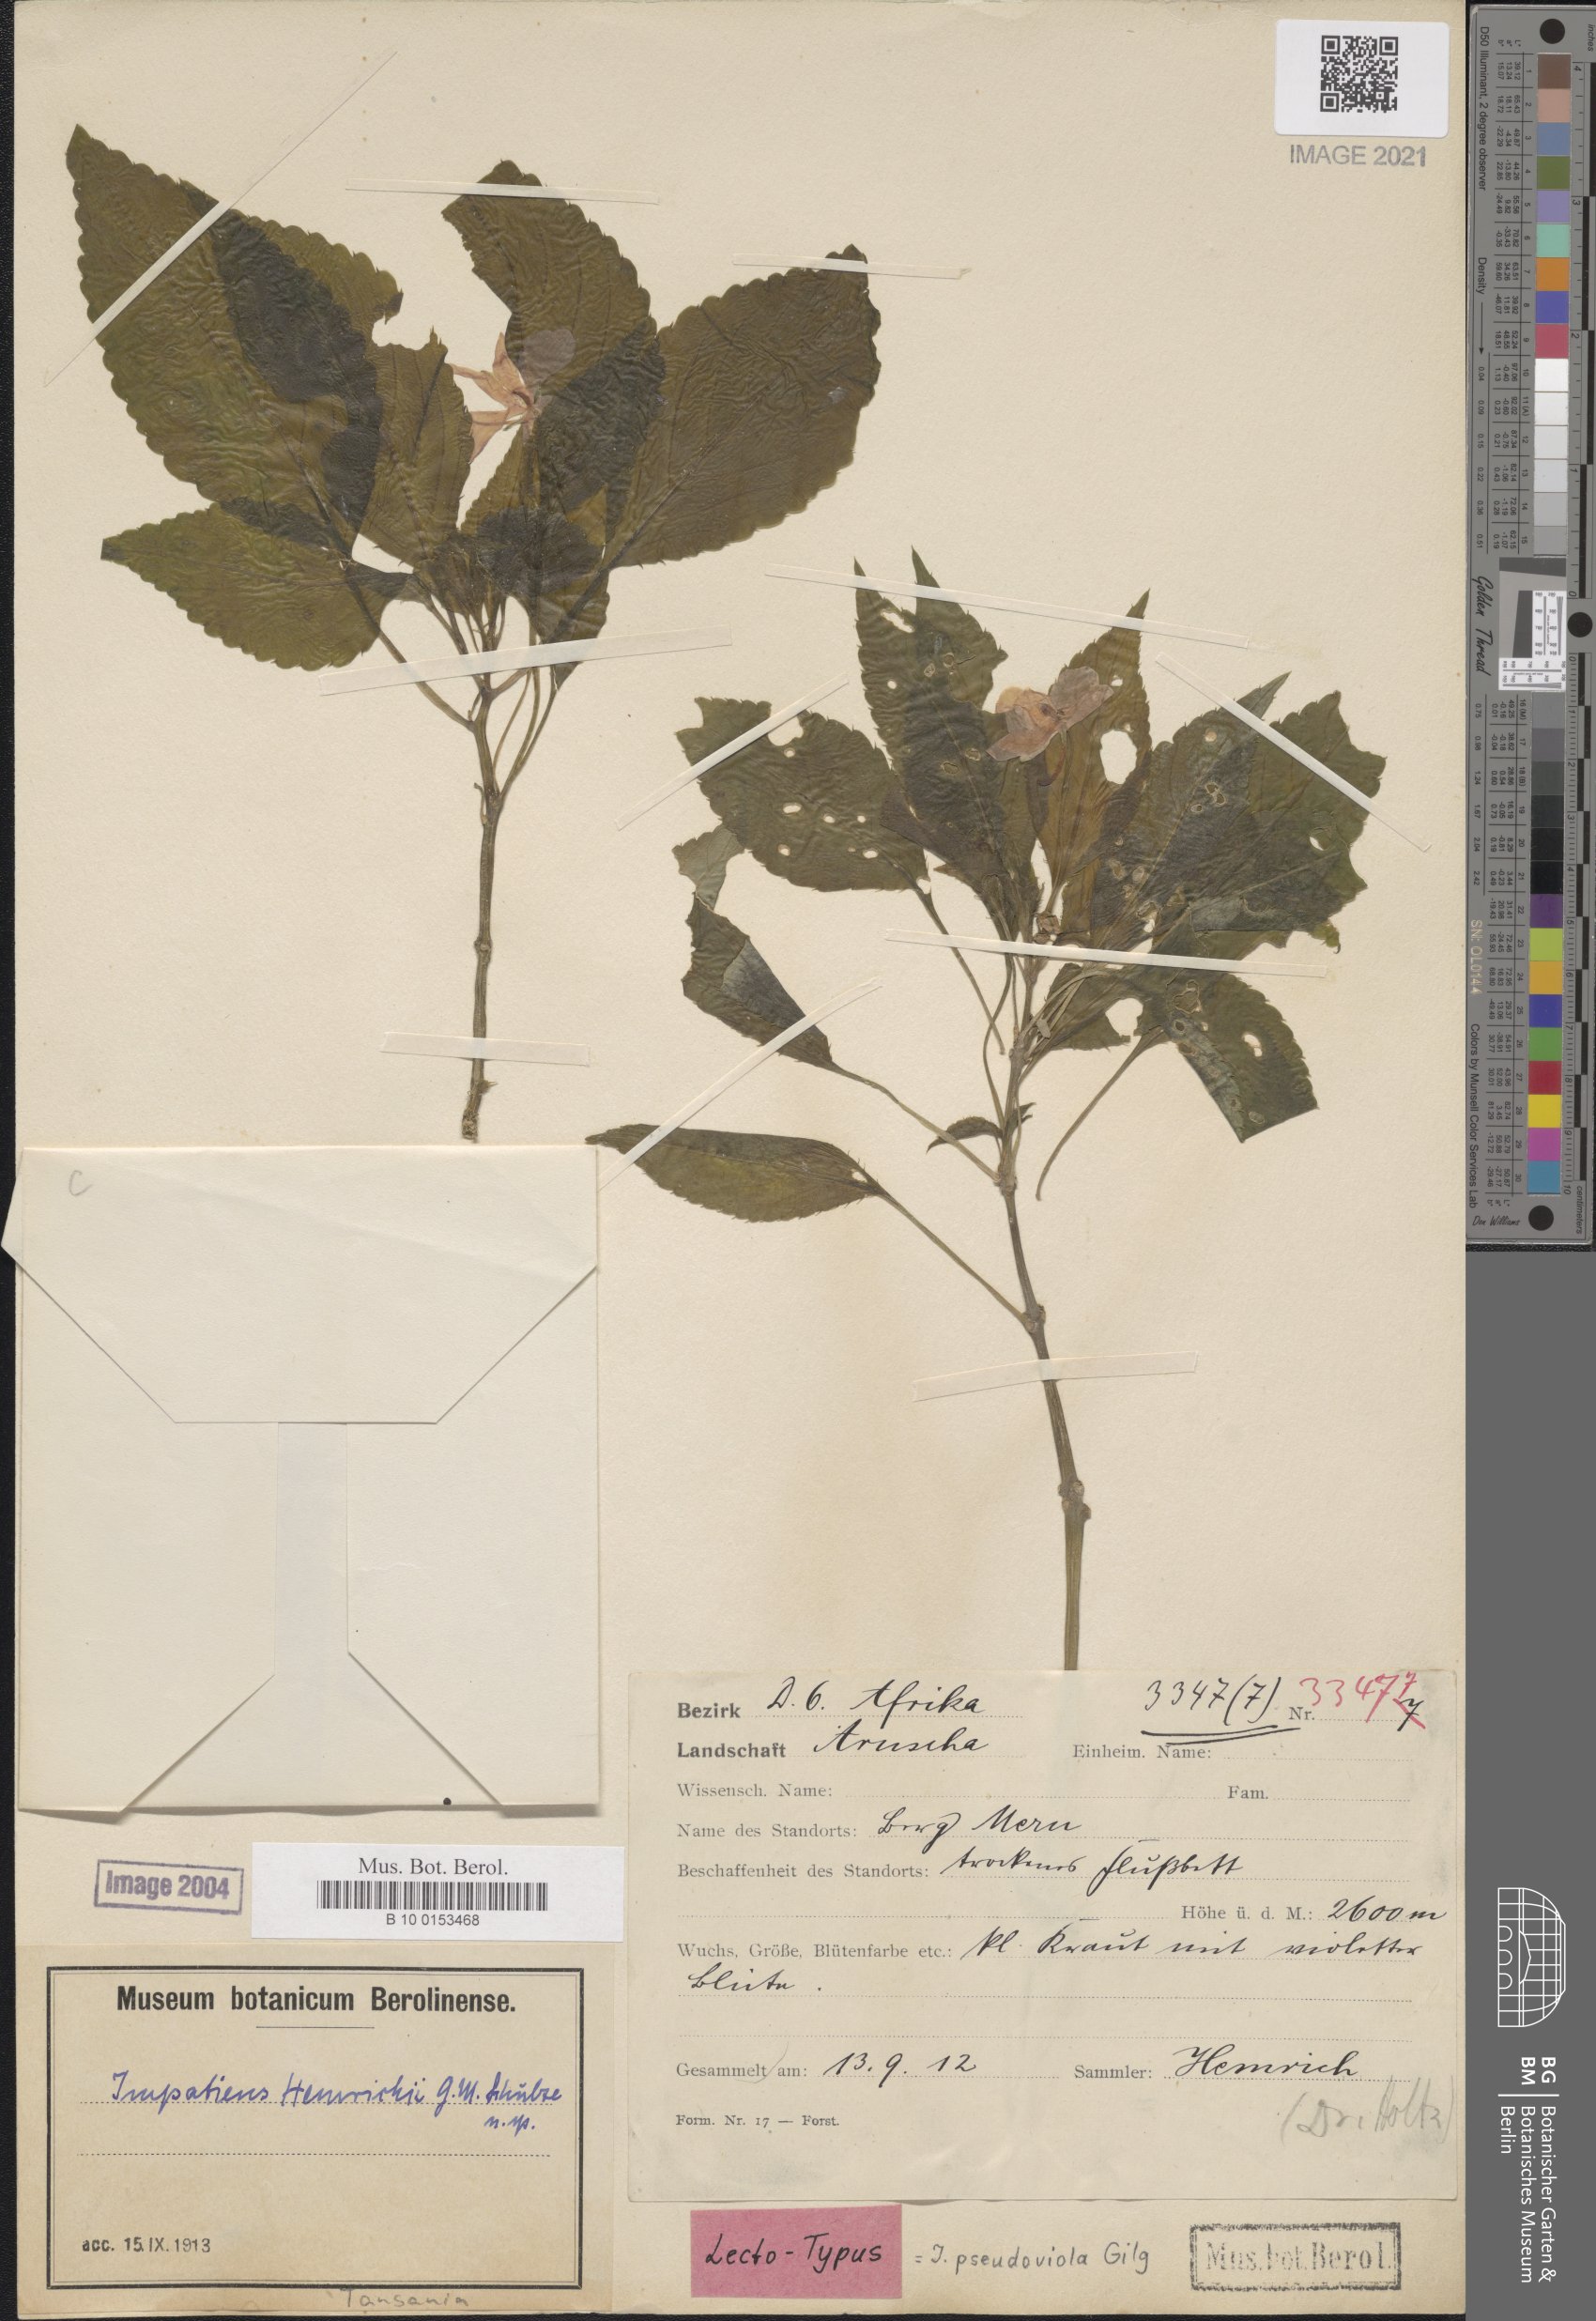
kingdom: Plantae
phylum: Tracheophyta
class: Magnoliopsida
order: Ericales
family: Balsaminaceae
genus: Impatiens
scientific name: Impatiens pseudoviola
